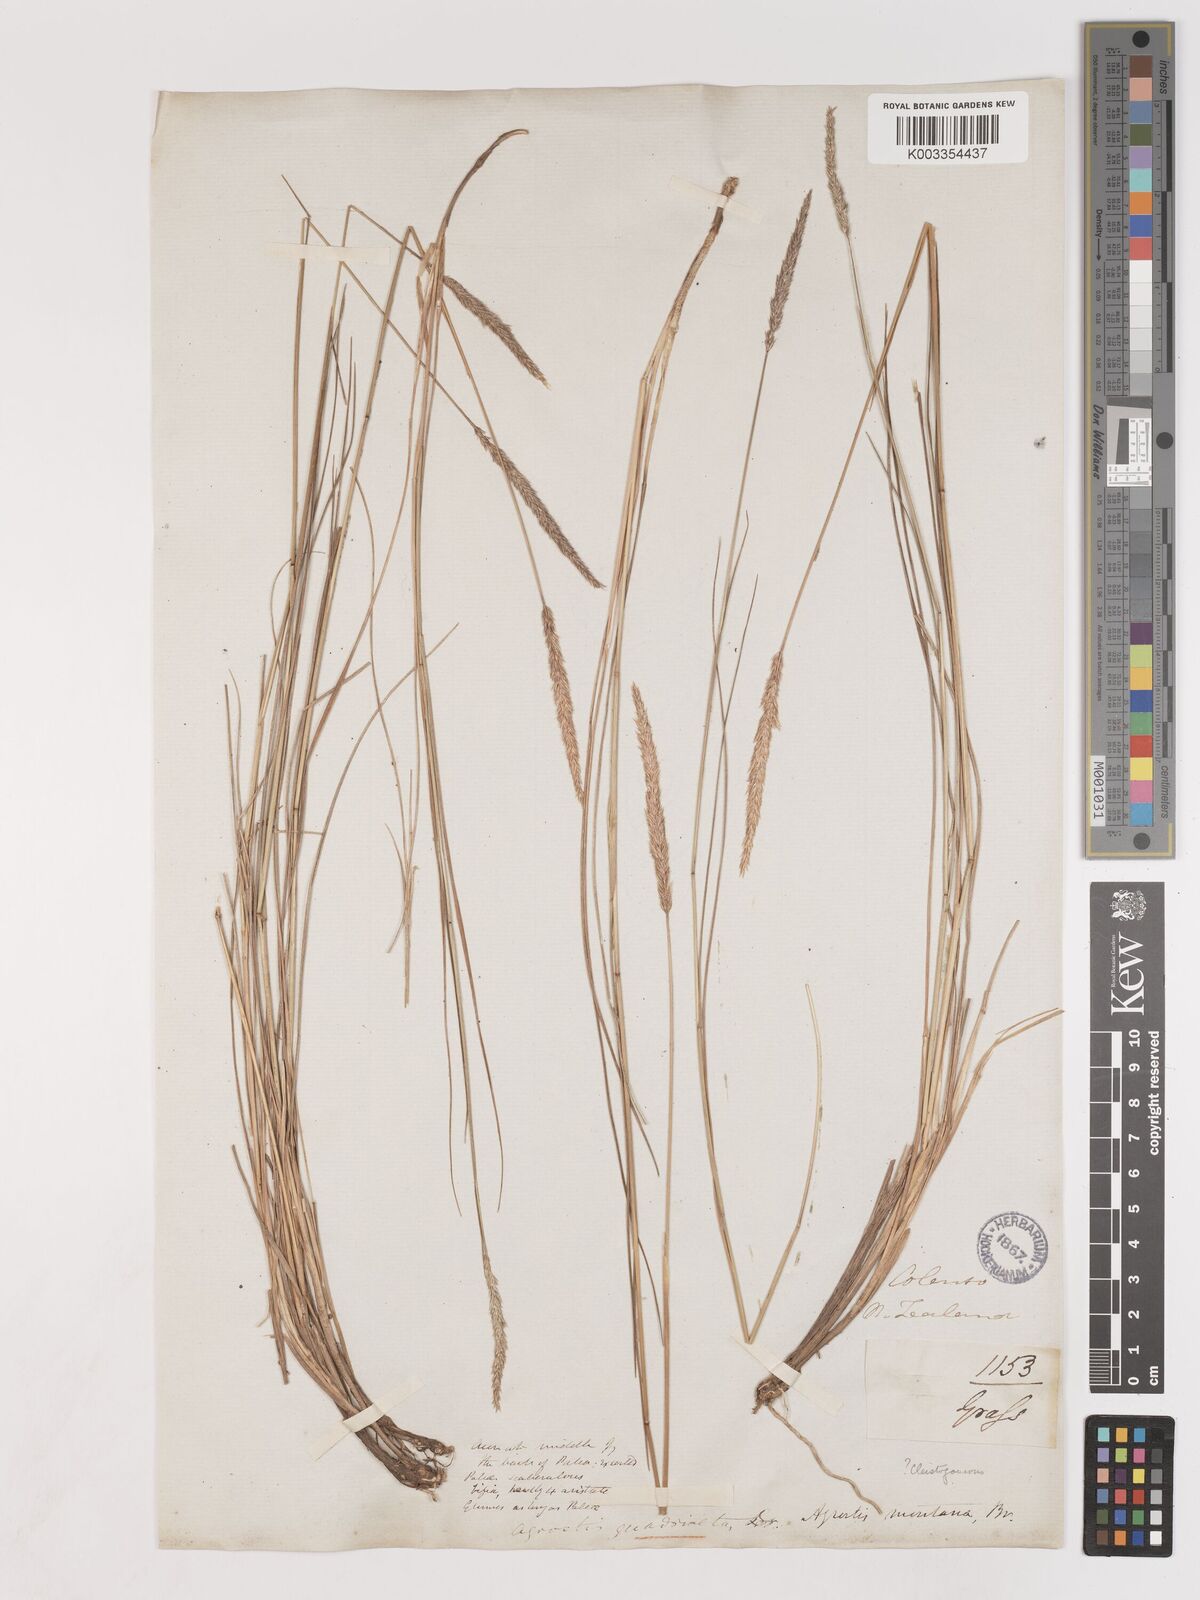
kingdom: Plantae
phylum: Tracheophyta
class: Liliopsida
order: Poales
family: Poaceae
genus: Calamagrostis
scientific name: Calamagrostis quadriseta
